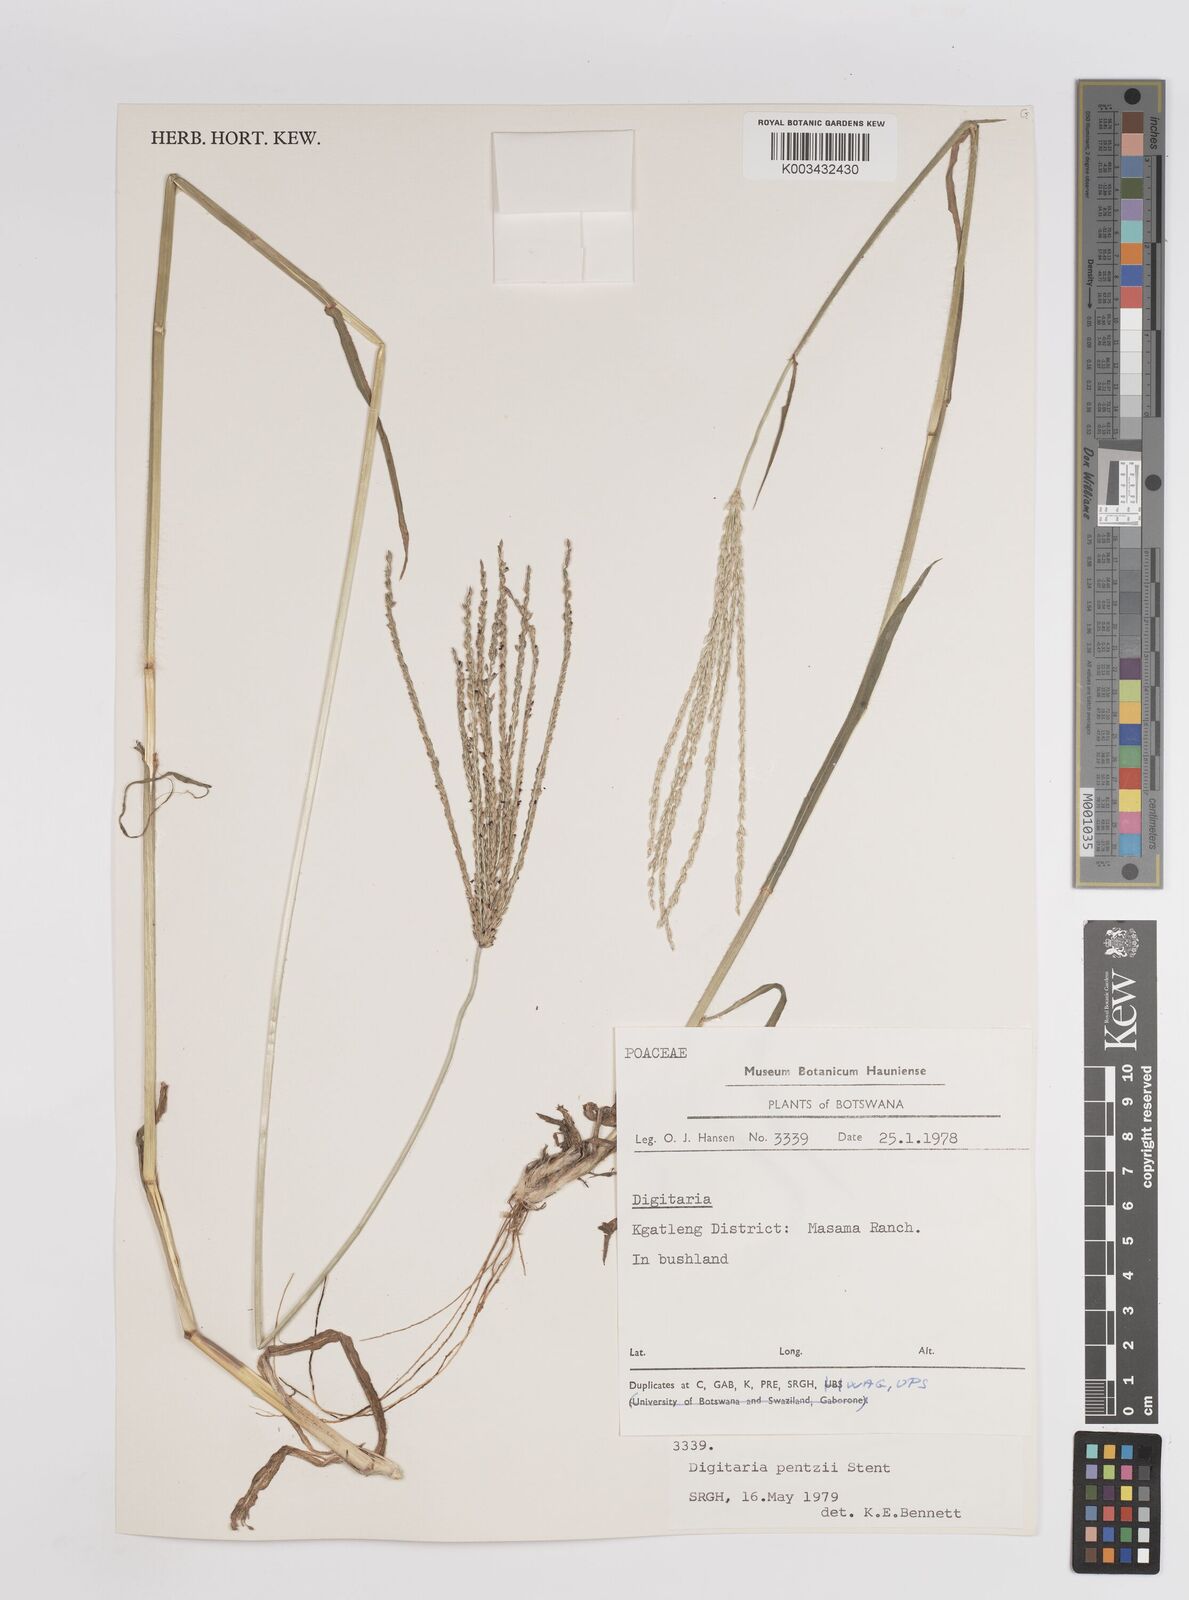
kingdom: Plantae
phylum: Tracheophyta
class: Liliopsida
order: Poales
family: Poaceae
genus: Digitaria
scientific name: Digitaria eriantha
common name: Digitgrass
